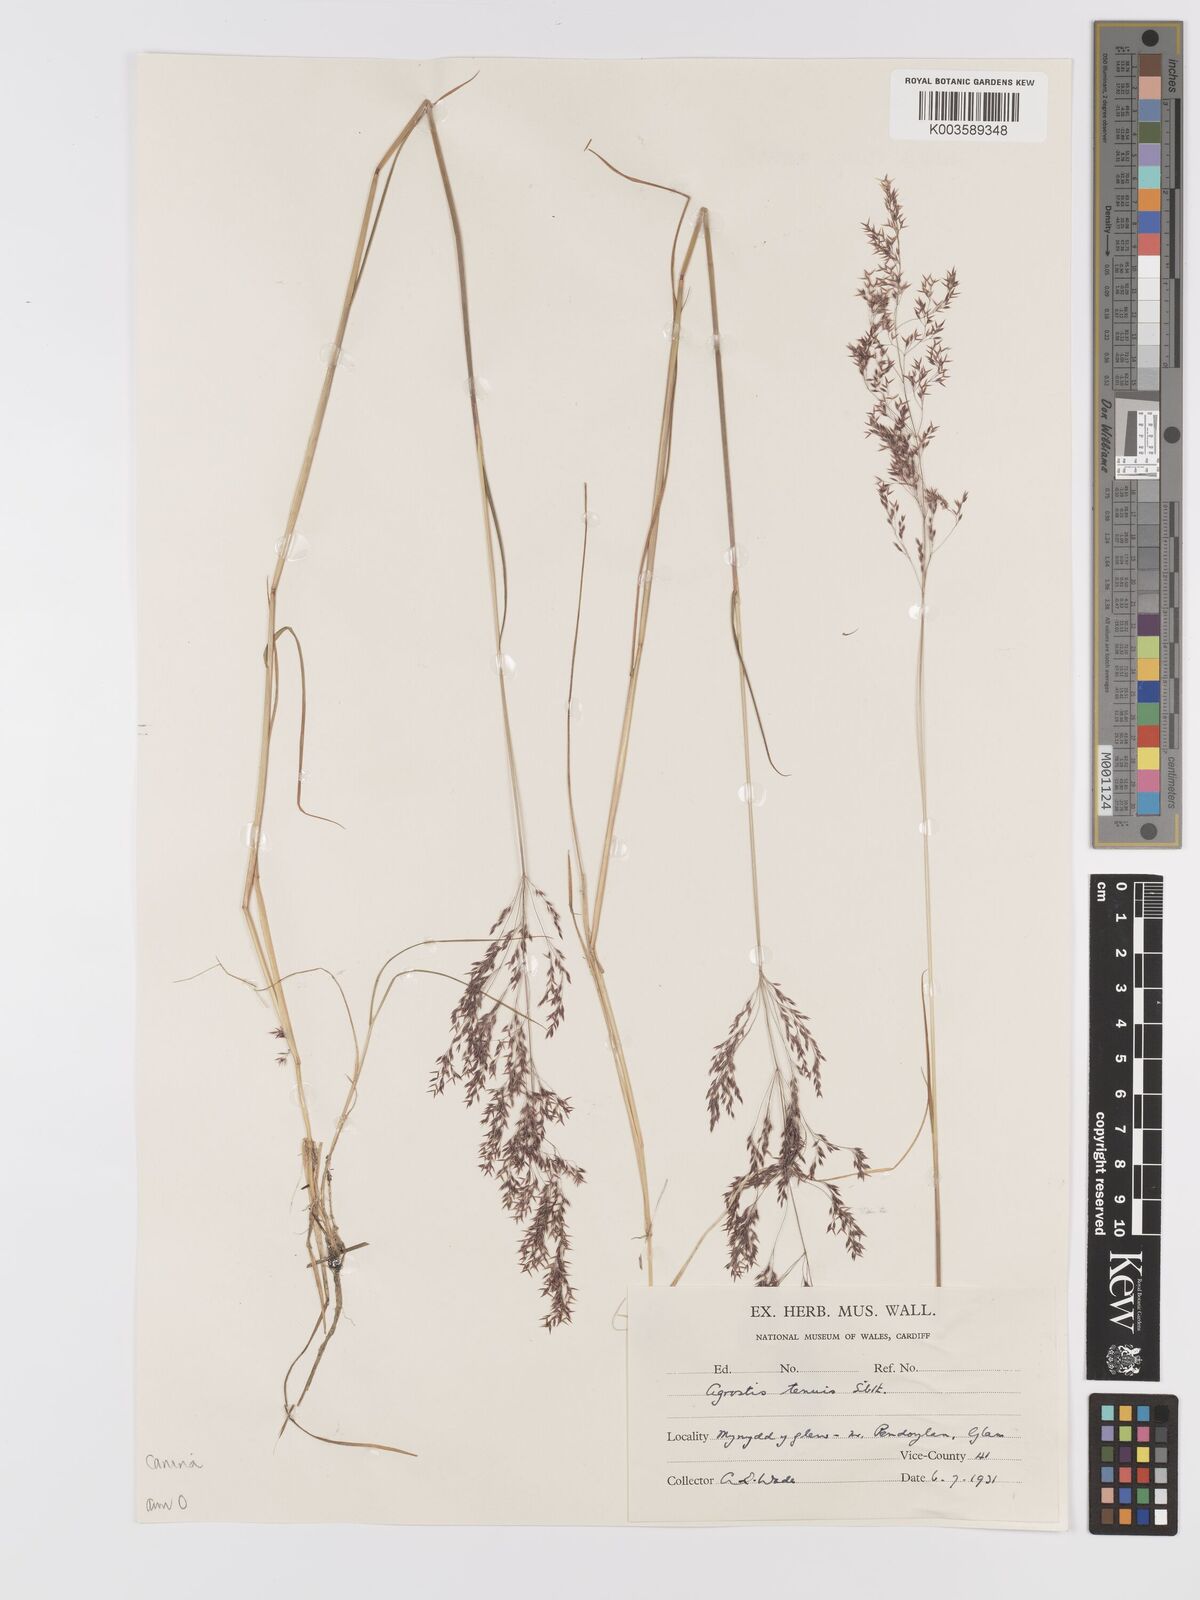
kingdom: Plantae
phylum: Tracheophyta
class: Liliopsida
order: Poales
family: Poaceae
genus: Agrostis
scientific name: Agrostis canina
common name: Velvet bent
